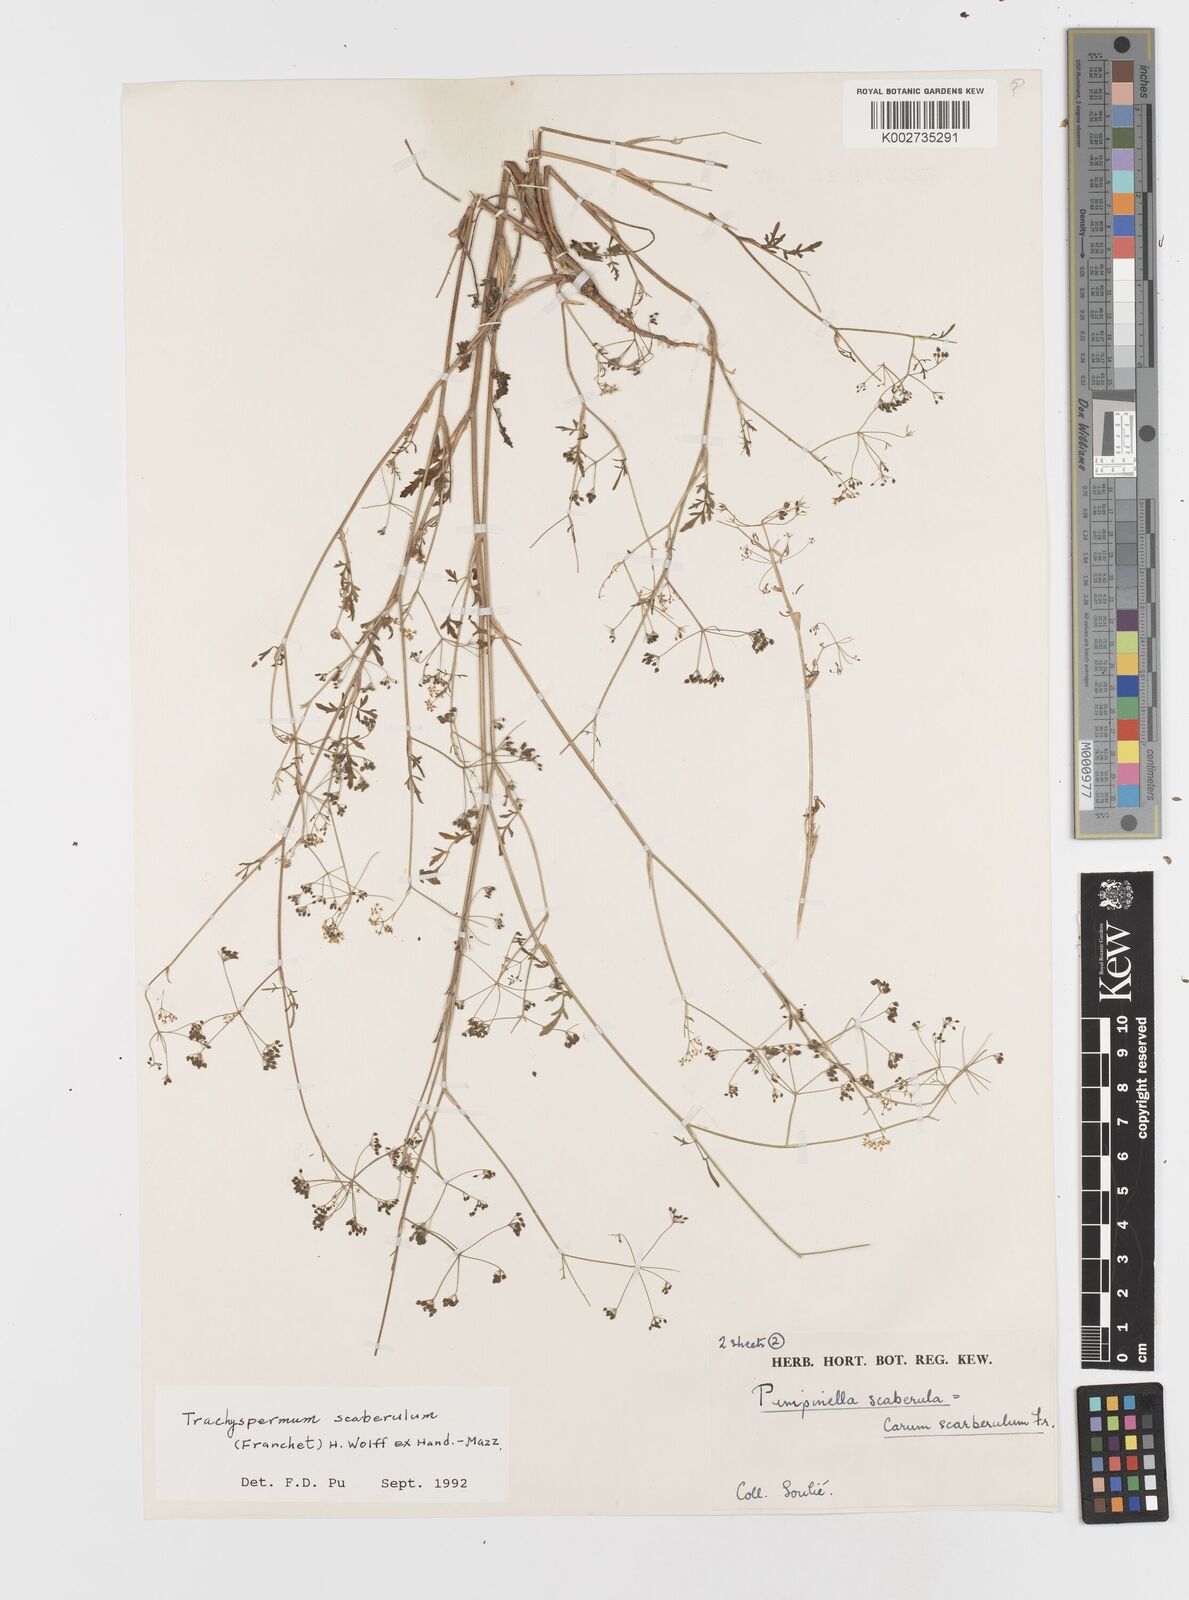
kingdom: Plantae
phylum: Tracheophyta
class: Magnoliopsida
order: Apiales
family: Apiaceae
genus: Pimpinella
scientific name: Pimpinella scaberula
